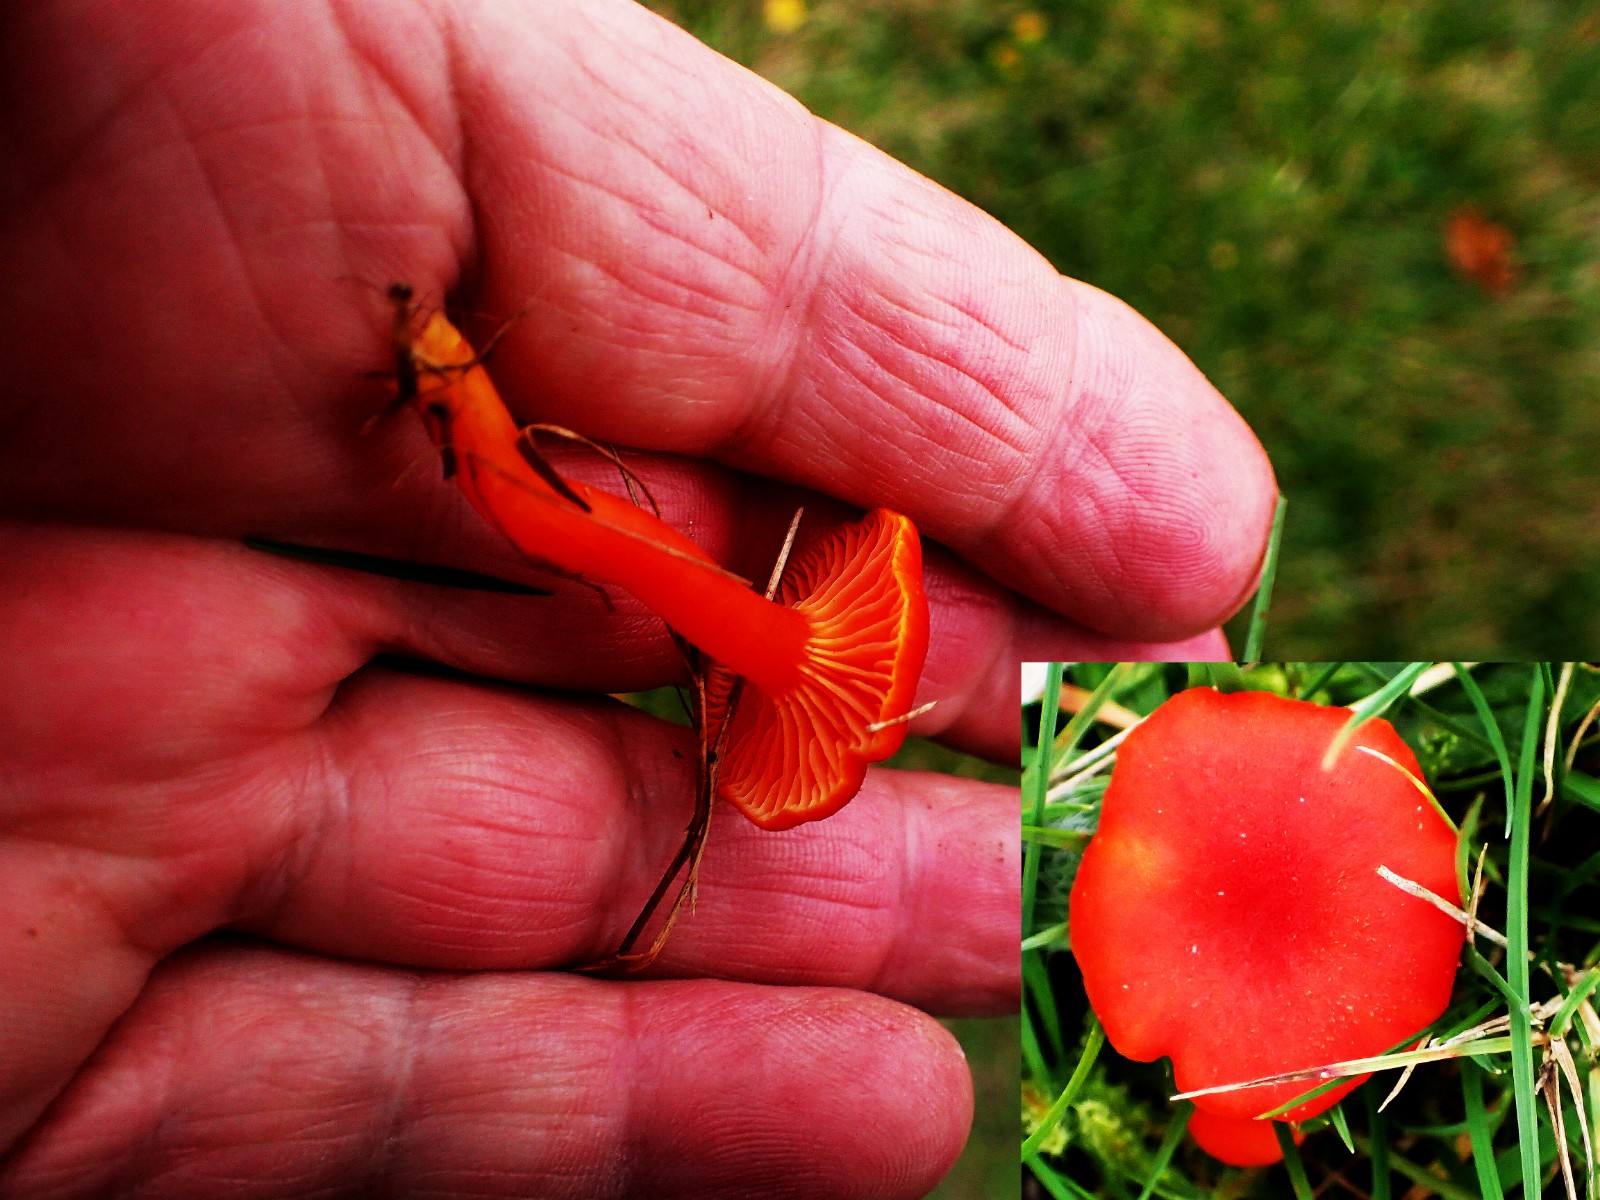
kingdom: Fungi
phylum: Basidiomycota
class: Agaricomycetes
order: Agaricales
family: Hygrophoraceae
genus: Hygrocybe
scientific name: Hygrocybe
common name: vokshat
